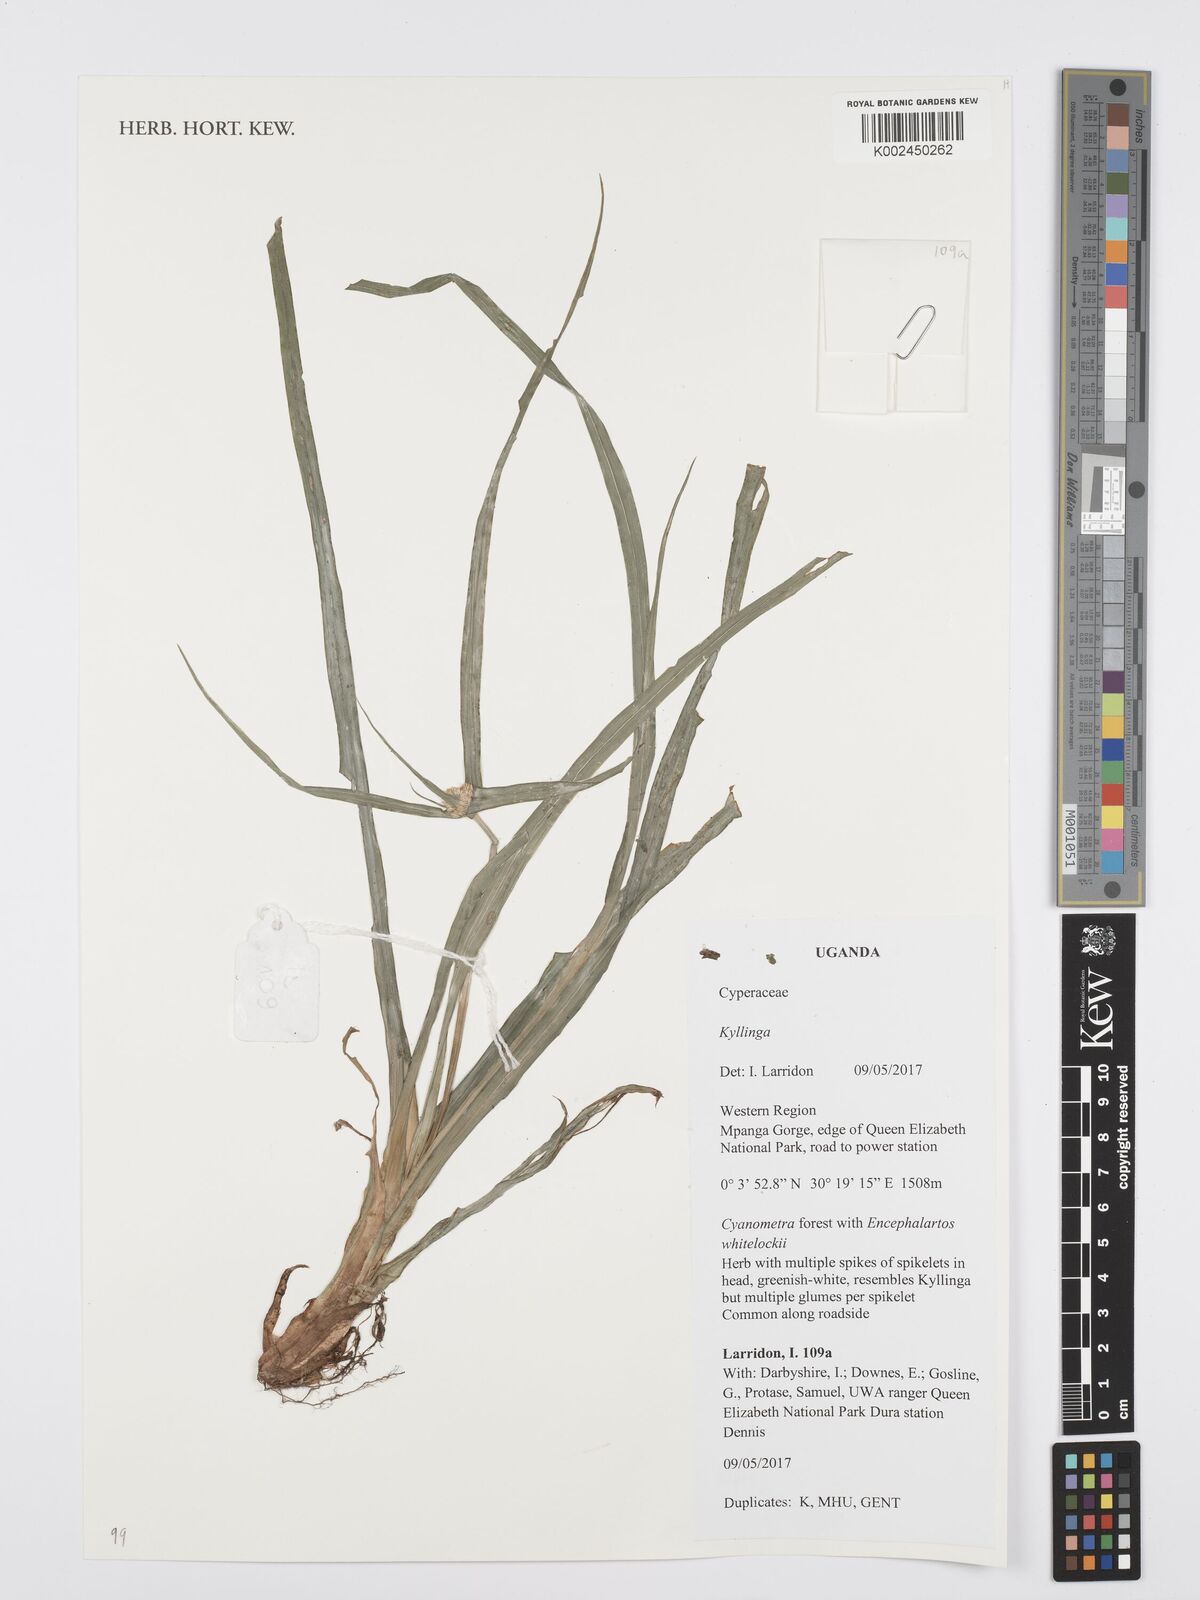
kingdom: Plantae
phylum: Tracheophyta
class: Liliopsida
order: Poales
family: Cyperaceae
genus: Cyperus
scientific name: Cyperus
